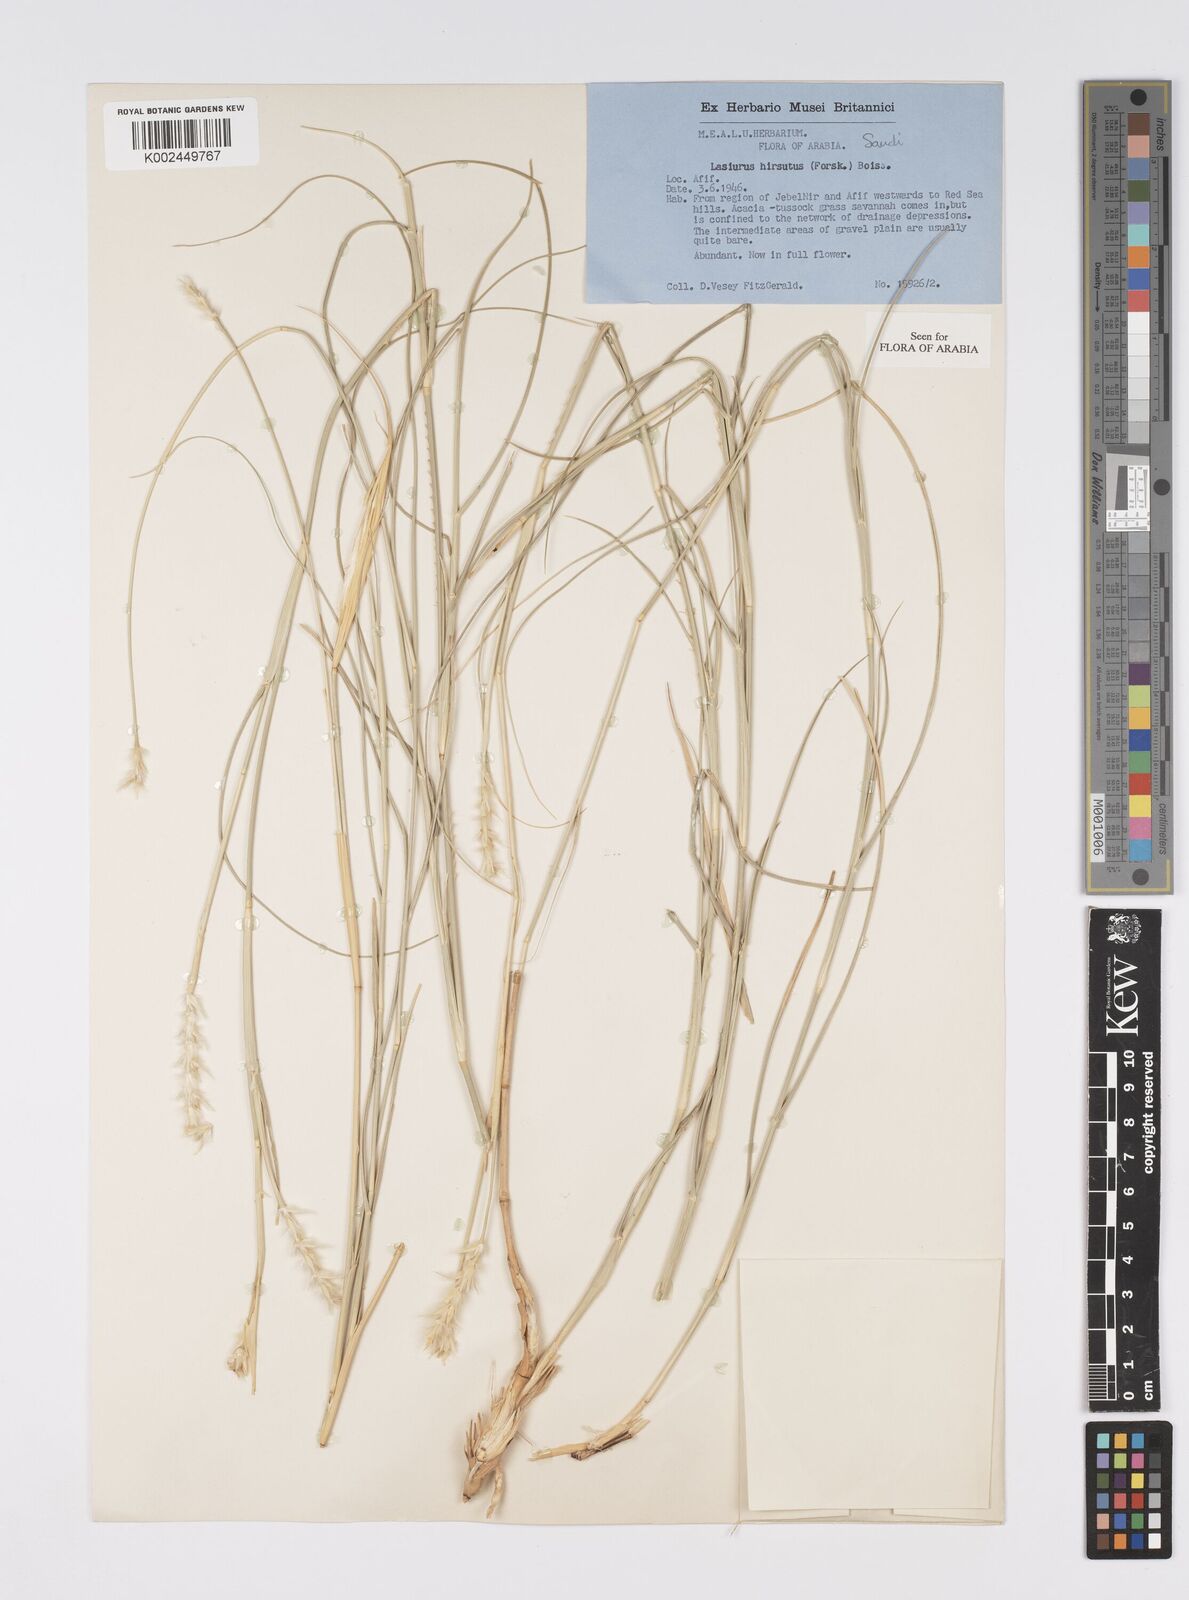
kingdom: Plantae
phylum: Tracheophyta
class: Liliopsida
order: Poales
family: Poaceae
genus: Lasiurus
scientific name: Lasiurus scindicus
